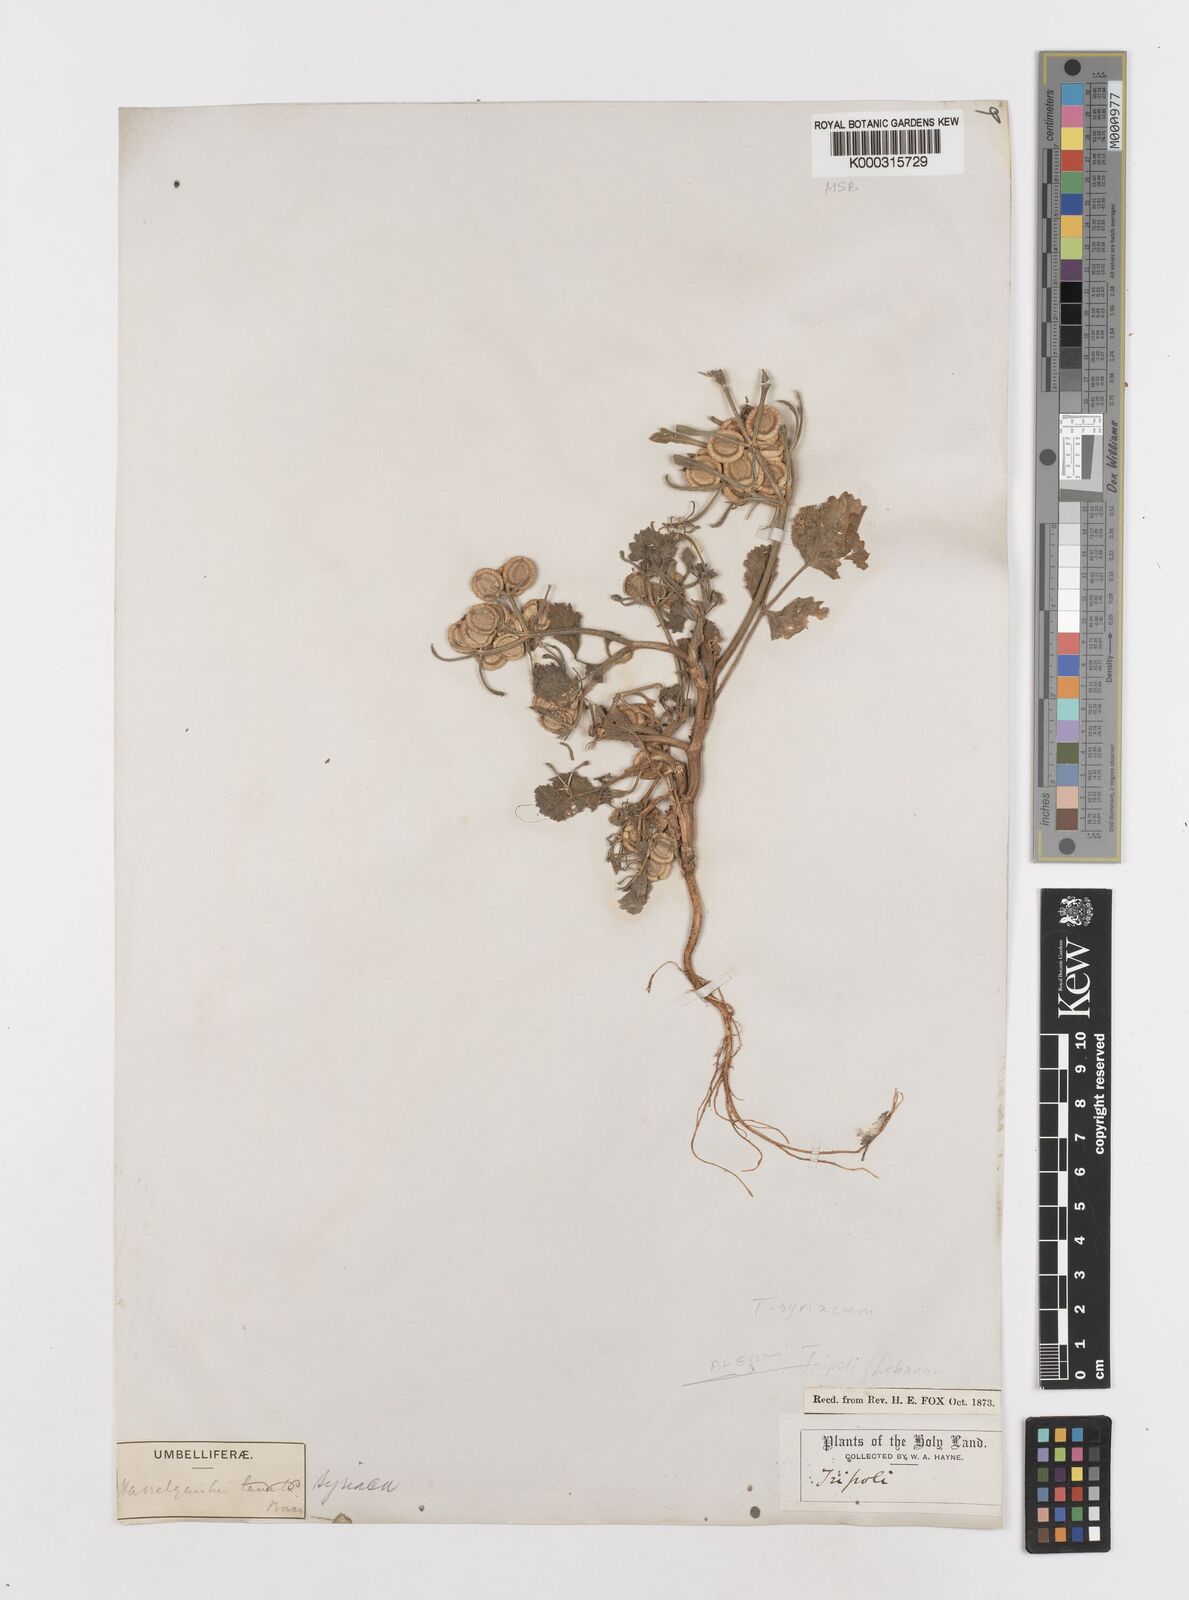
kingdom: Plantae
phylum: Tracheophyta
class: Magnoliopsida
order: Apiales
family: Apiaceae
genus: Tordylium
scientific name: Tordylium syriacum
